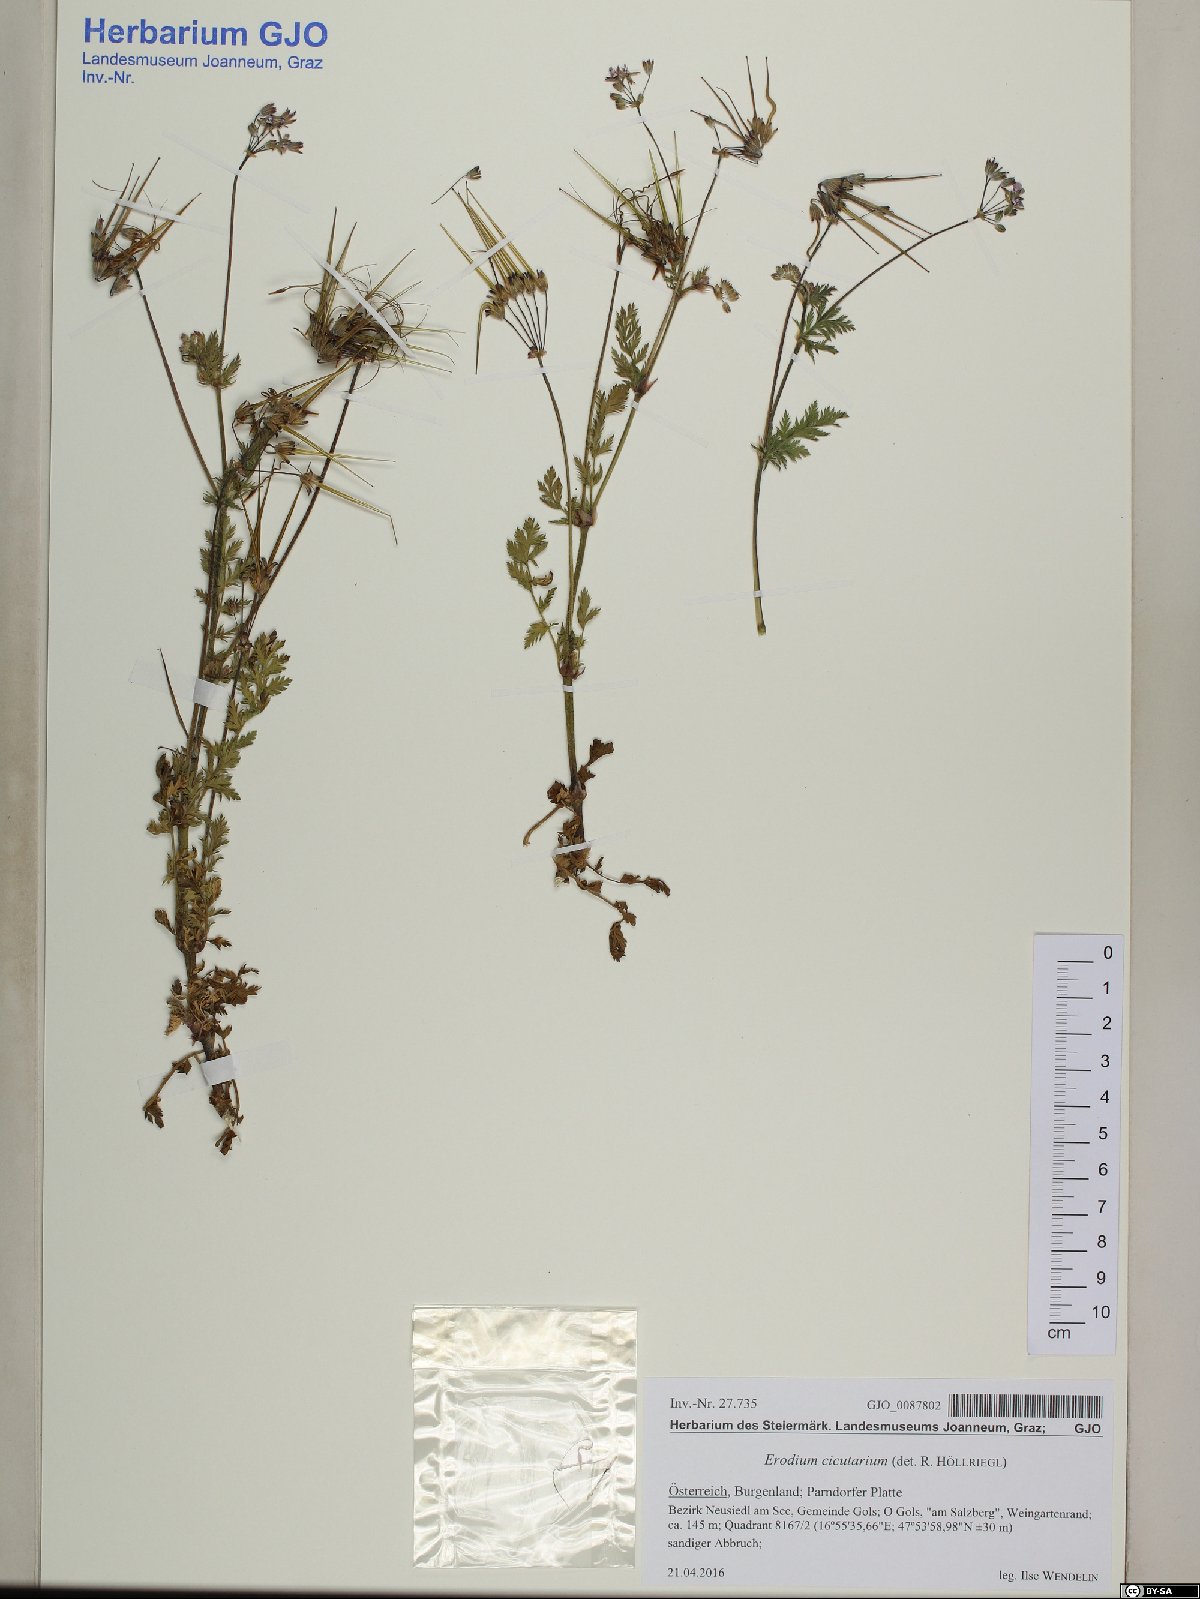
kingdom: Plantae
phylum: Tracheophyta
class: Magnoliopsida
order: Geraniales
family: Geraniaceae
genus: Erodium
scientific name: Erodium cicutarium
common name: Common stork's-bill
